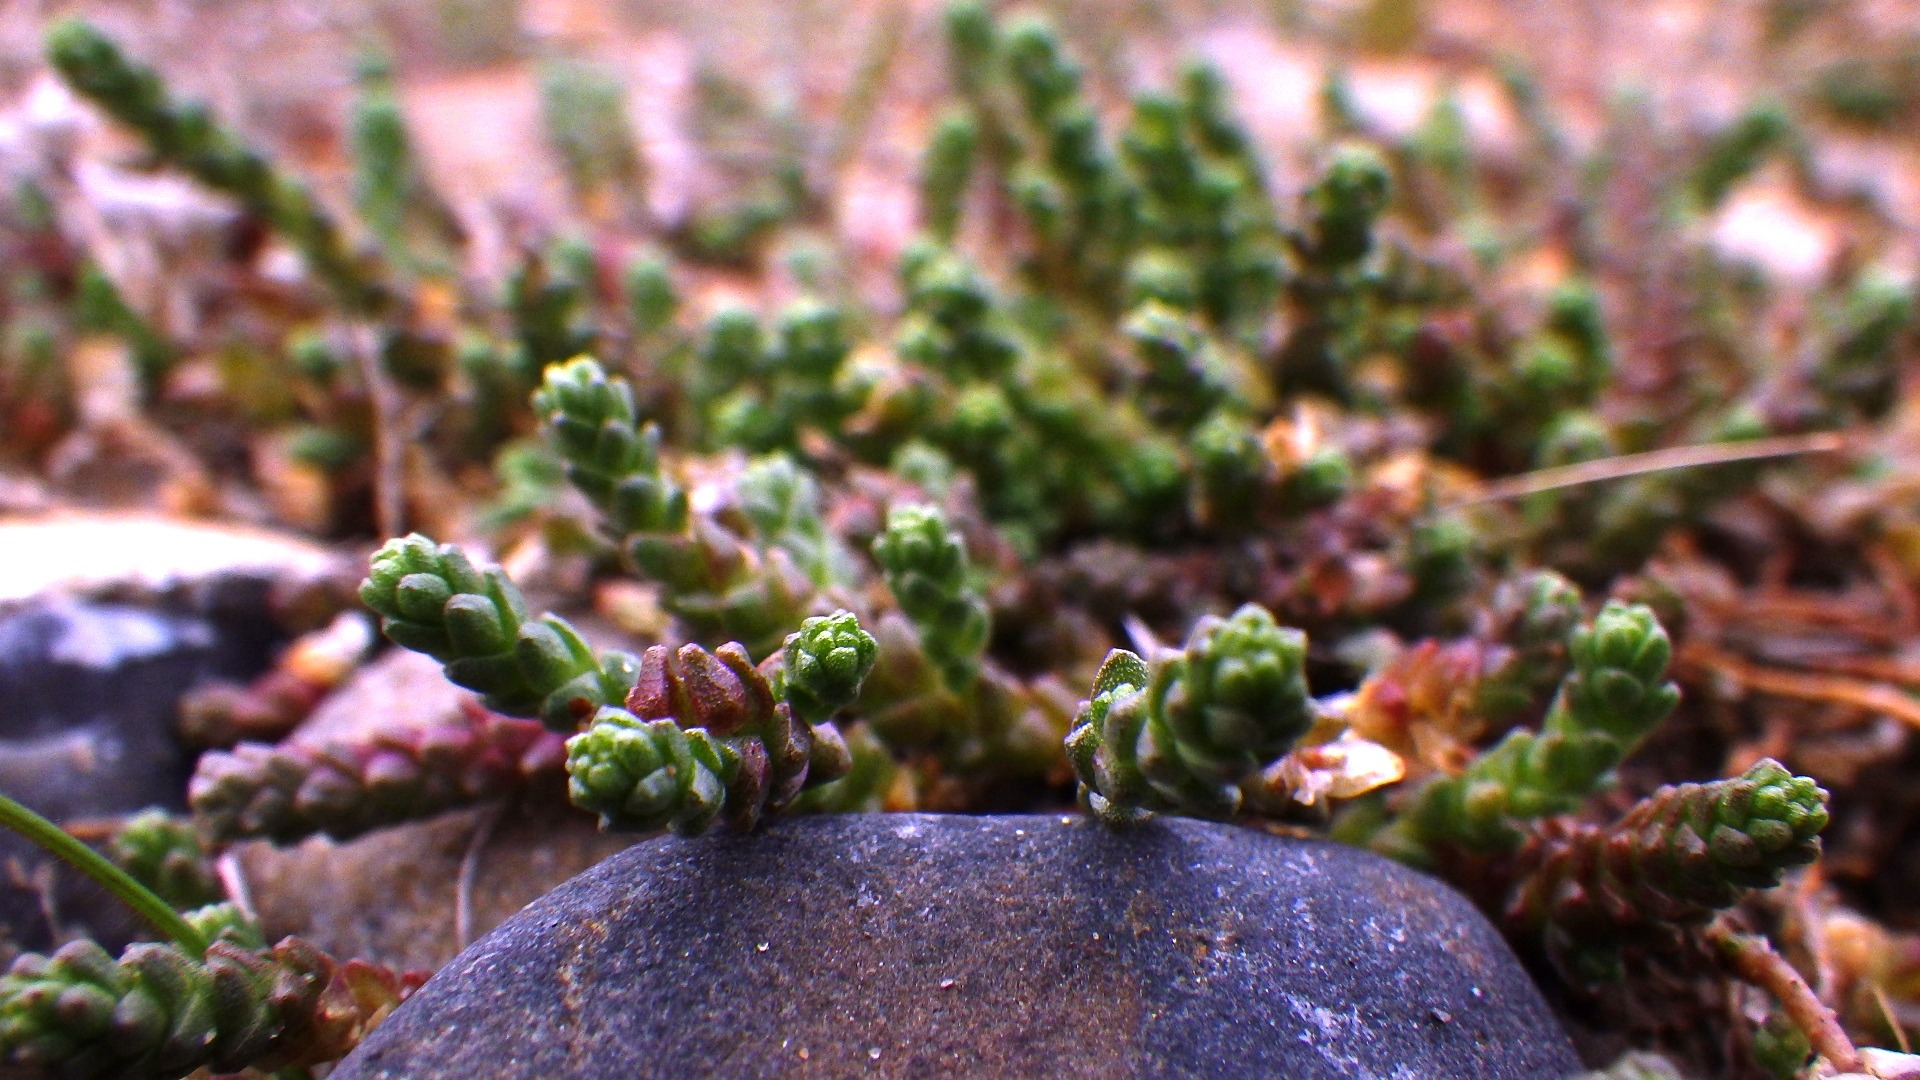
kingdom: Plantae
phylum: Tracheophyta
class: Magnoliopsida
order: Saxifragales
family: Crassulaceae
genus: Sedum
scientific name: Sedum acre
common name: Bidende stenurt
